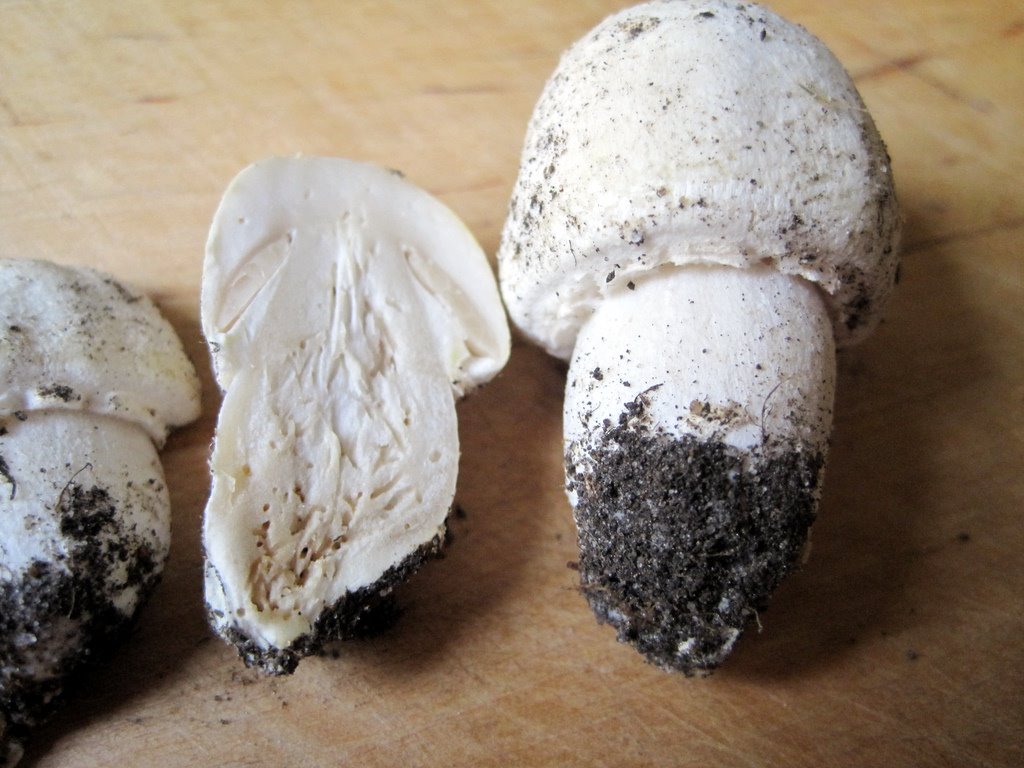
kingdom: Fungi
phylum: Basidiomycota
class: Agaricomycetes
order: Agaricales
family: Agaricaceae
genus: Agaricus
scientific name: Agaricus arvensis
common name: ager-champignon
